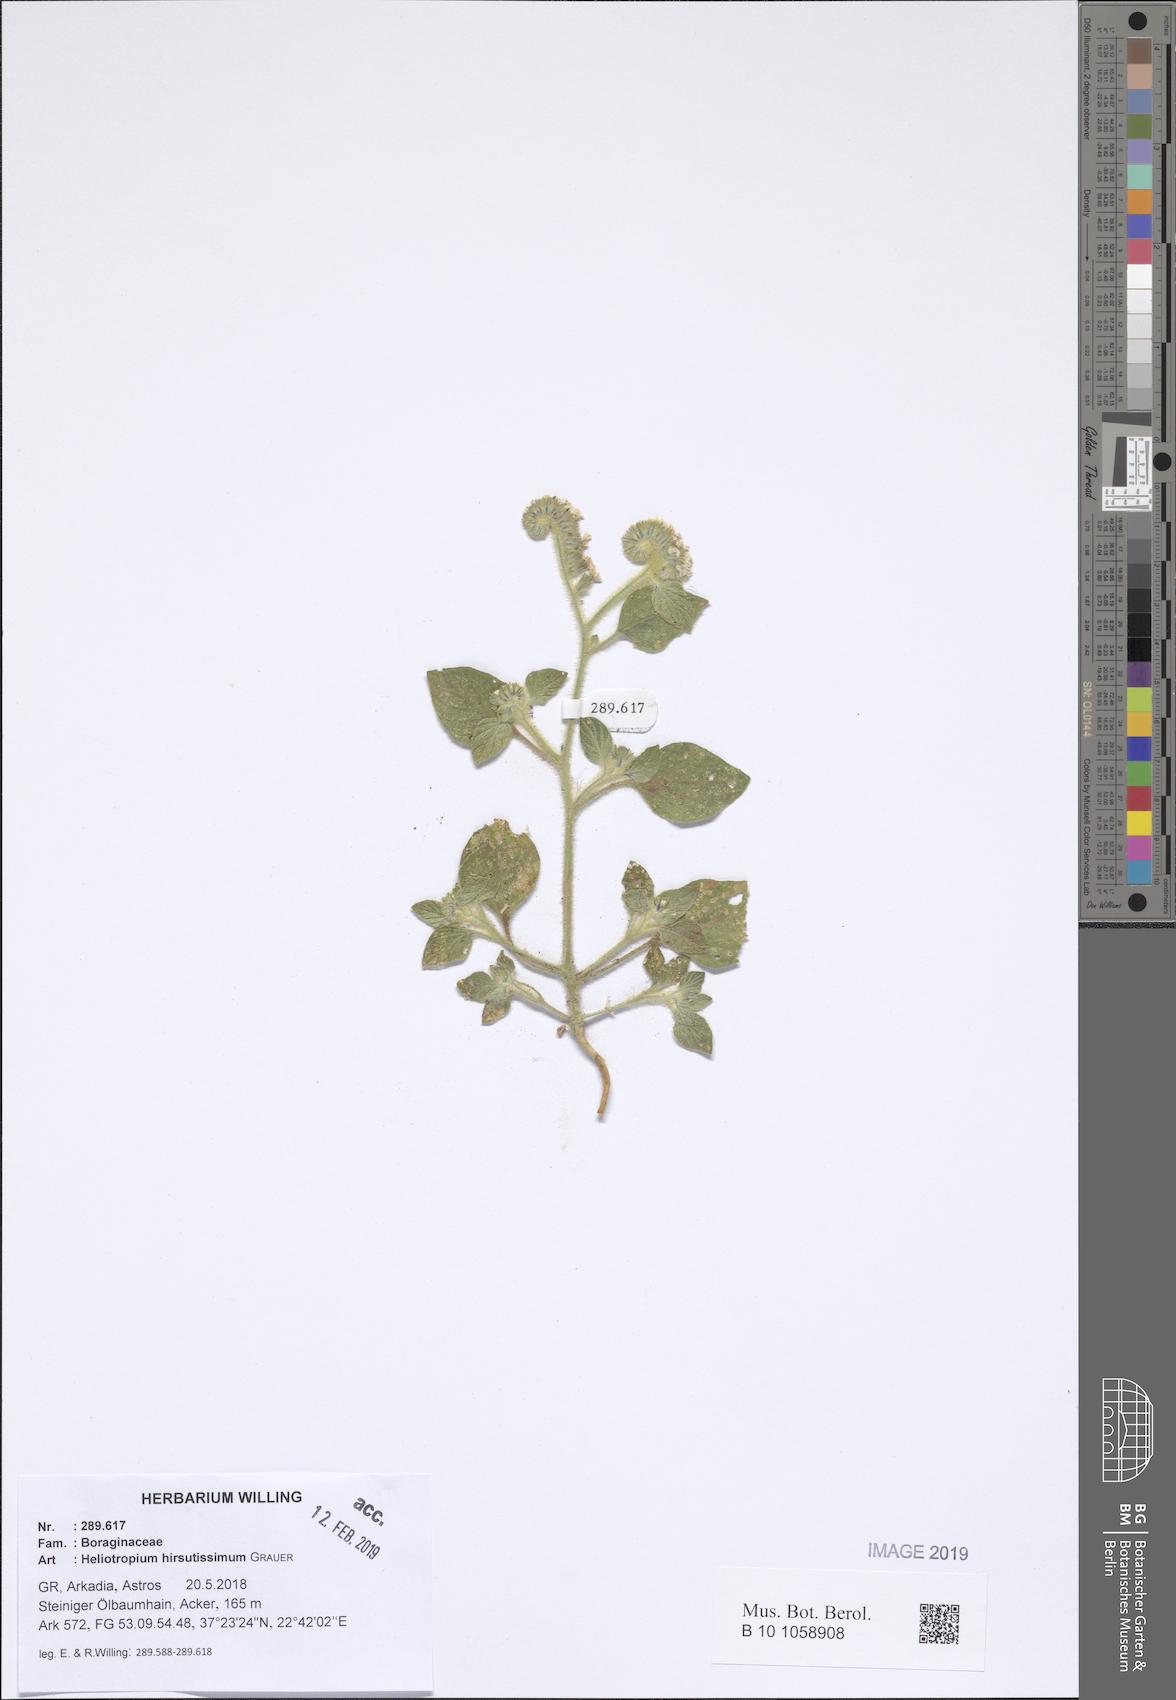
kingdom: Plantae
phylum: Tracheophyta
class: Magnoliopsida
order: Boraginales
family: Heliotropiaceae
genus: Heliotropium
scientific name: Heliotropium hirsutissimum
